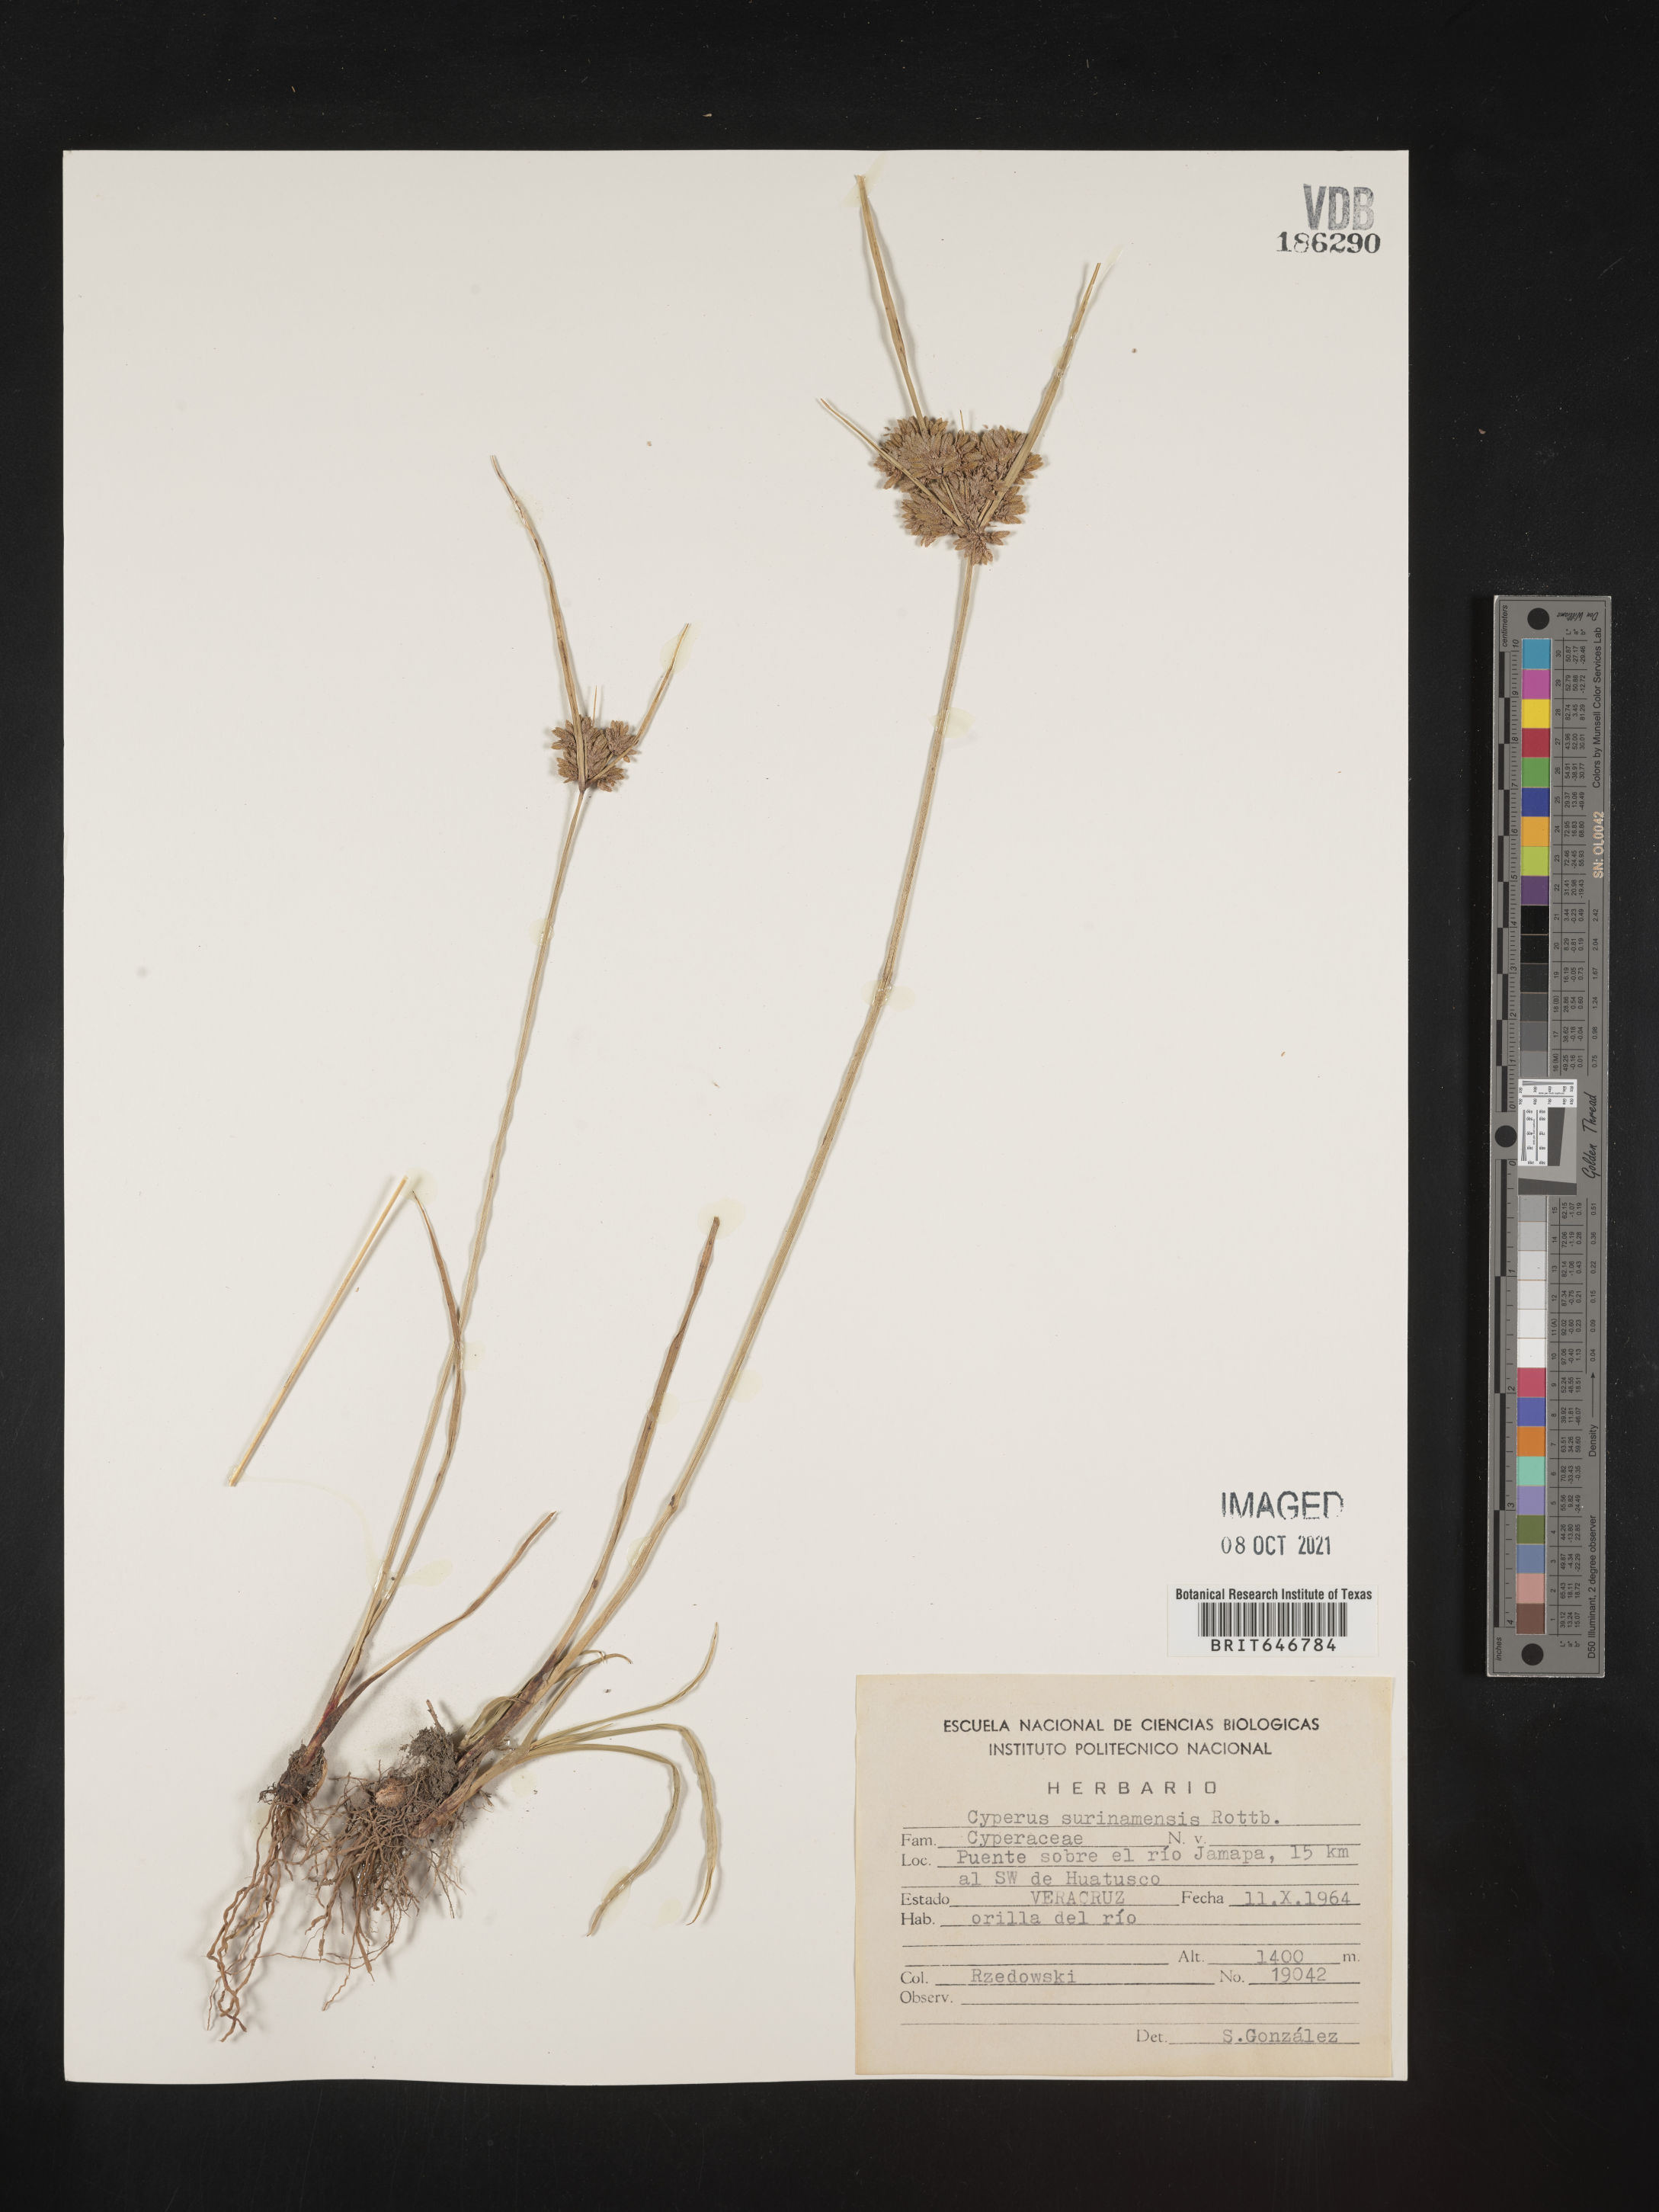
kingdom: Plantae
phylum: Tracheophyta
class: Liliopsida
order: Poales
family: Cyperaceae
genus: Cyperus
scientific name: Cyperus
